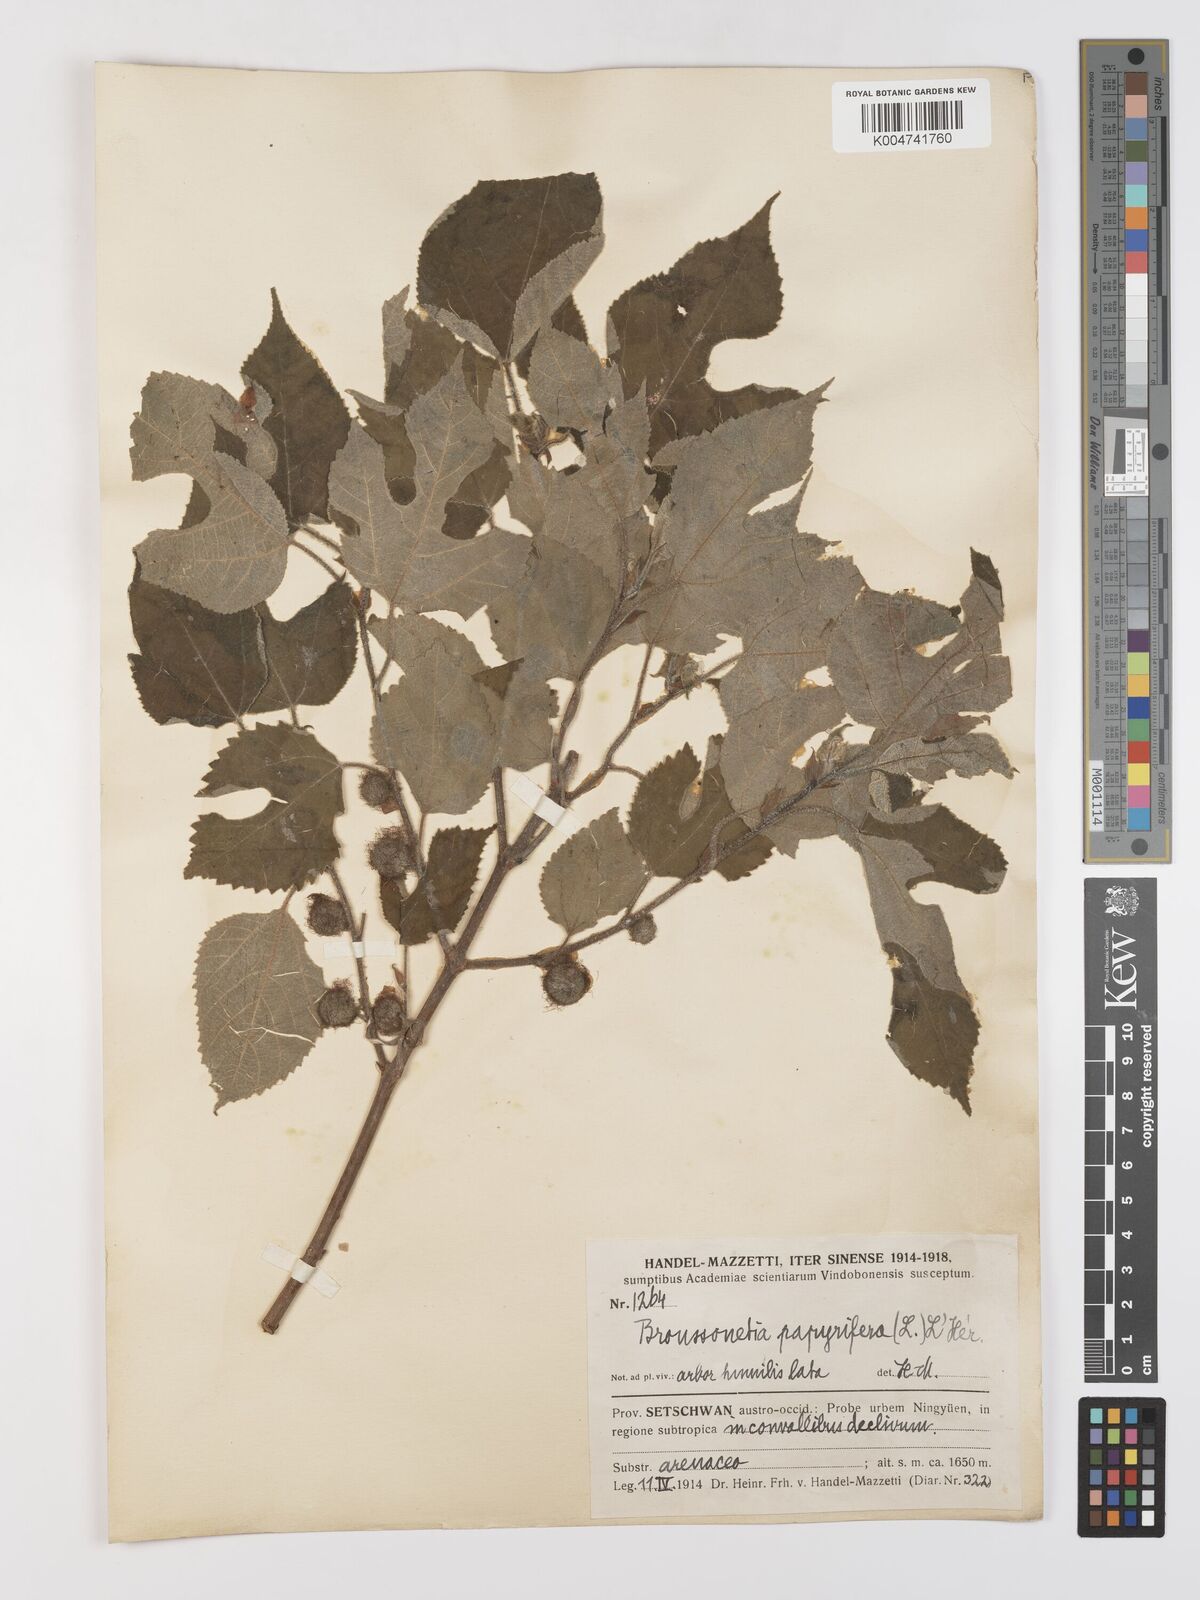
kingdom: Plantae
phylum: Tracheophyta
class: Magnoliopsida
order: Rosales
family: Moraceae
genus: Broussonetia
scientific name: Broussonetia
